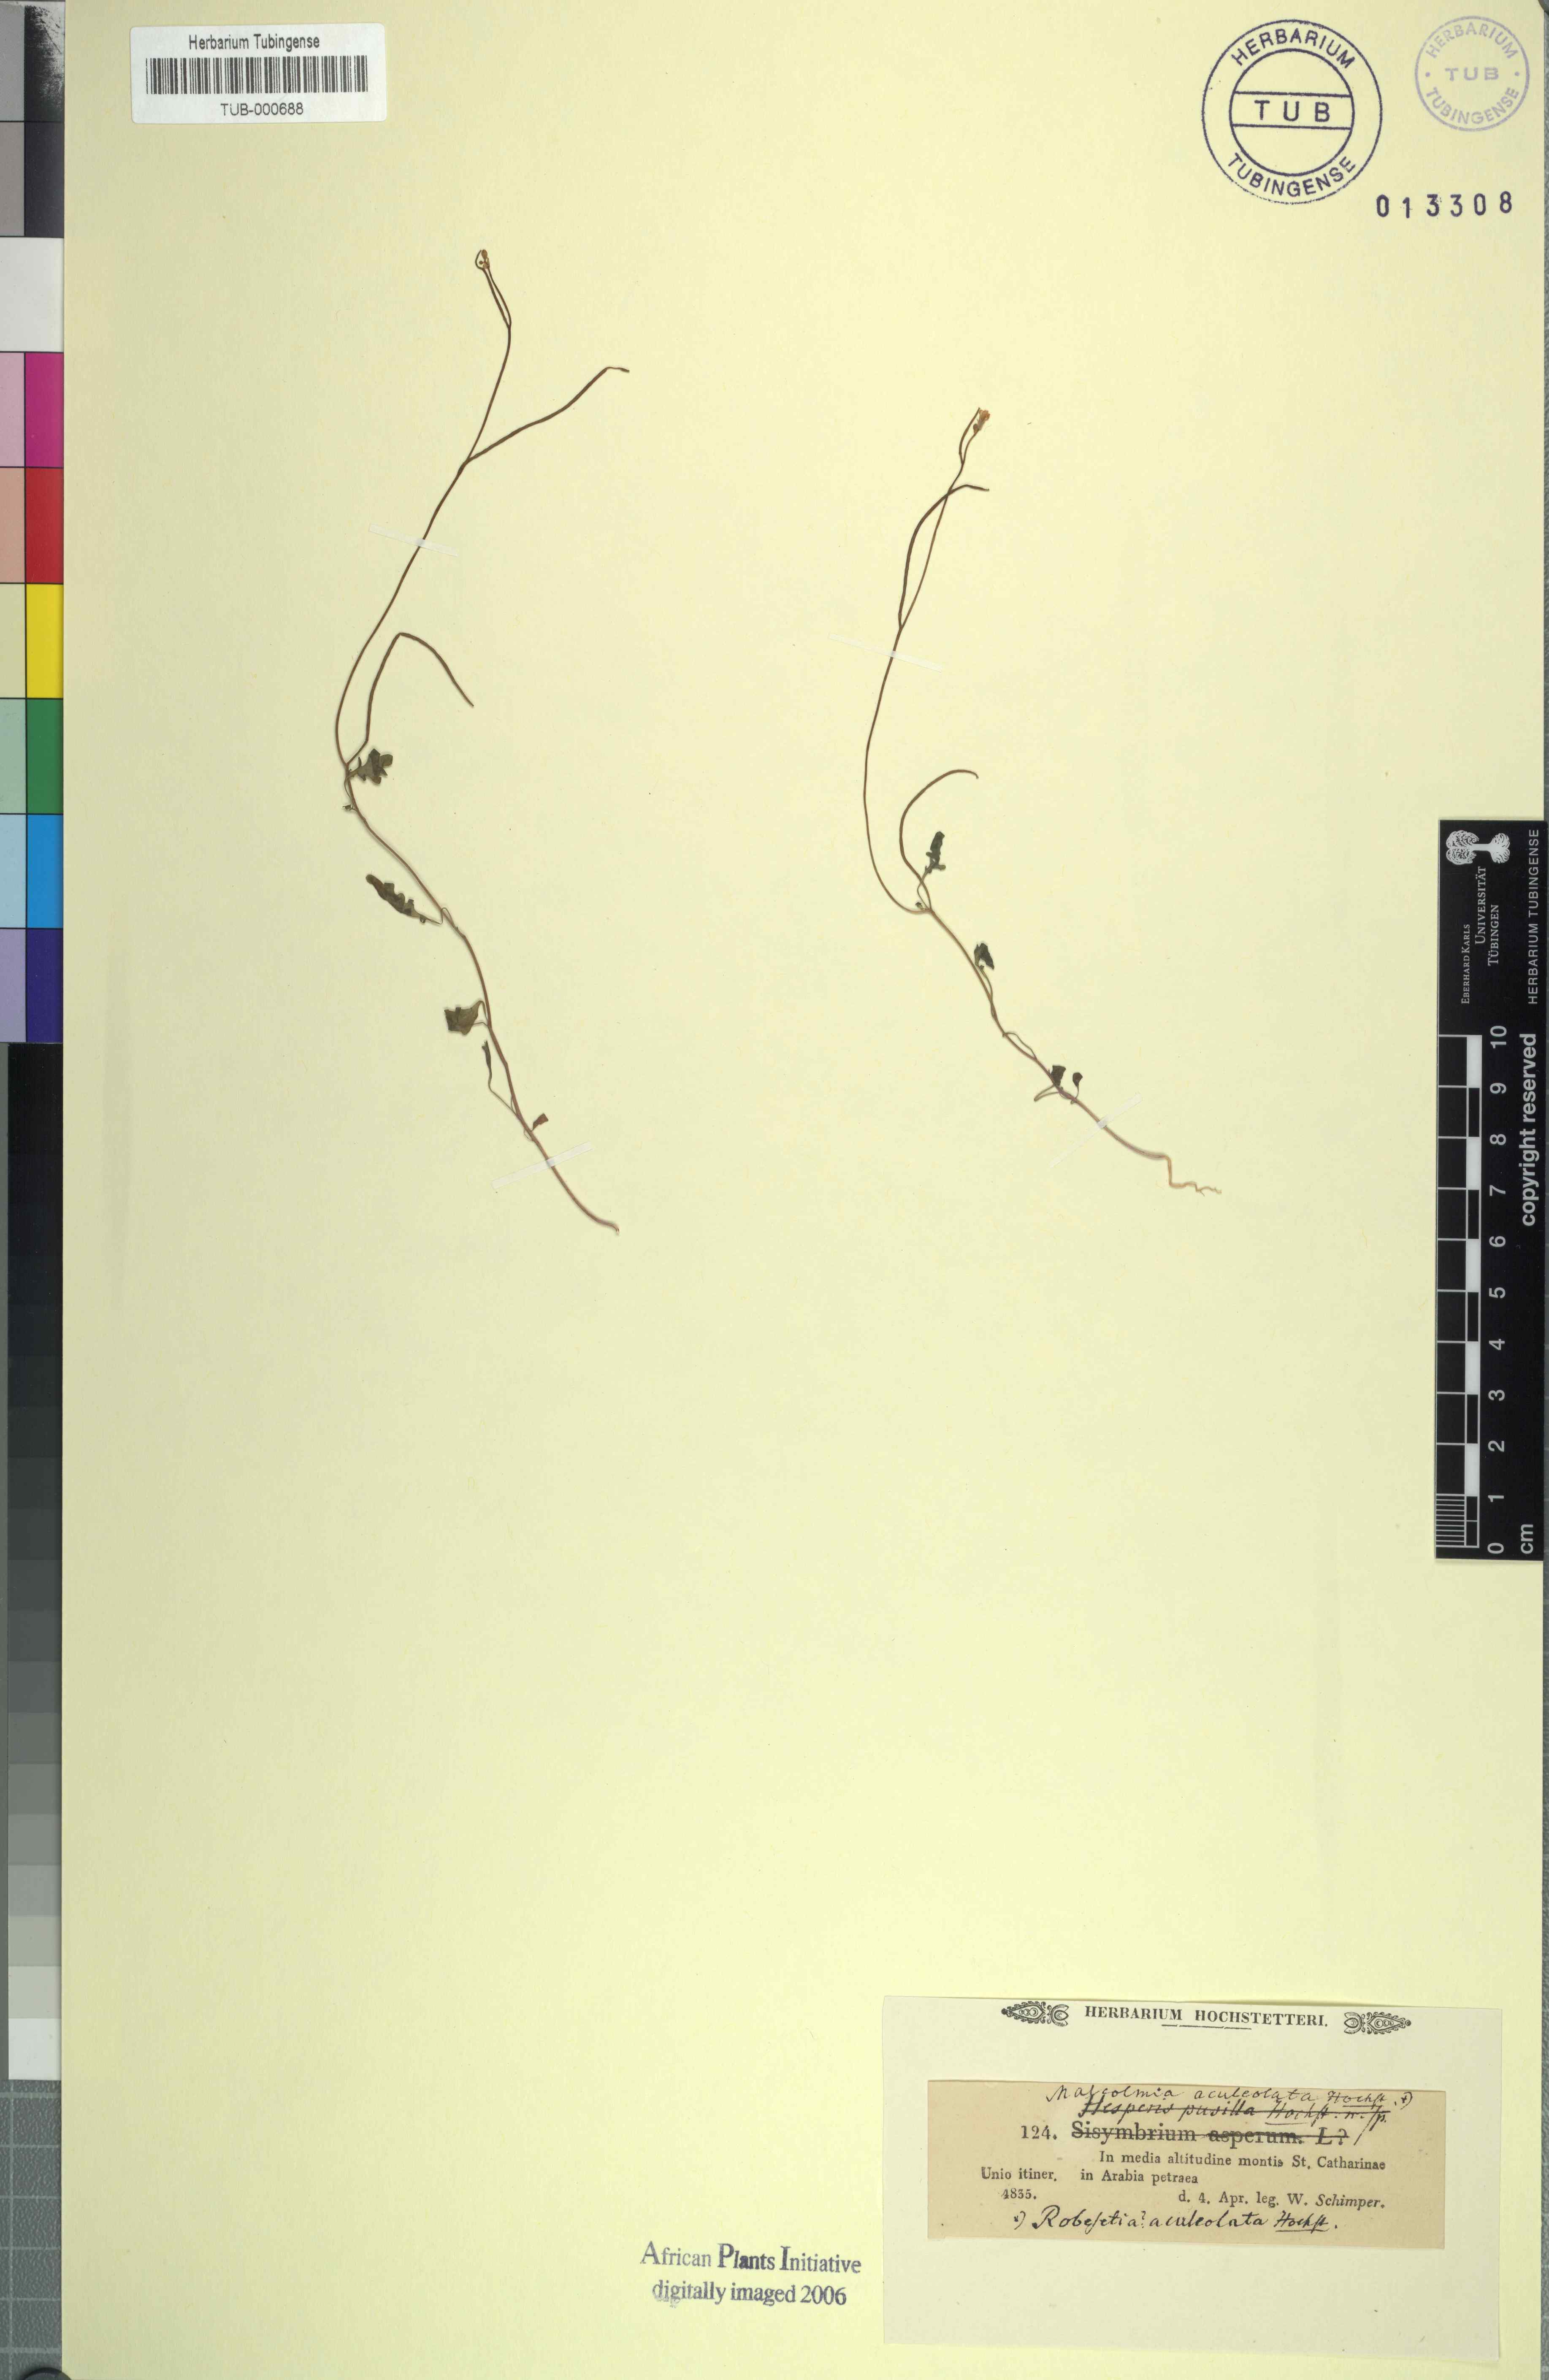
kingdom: Plantae
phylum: Tracheophyta
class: Magnoliopsida
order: Brassicales
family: Brassicaceae
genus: Malcolmia
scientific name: Malcolmia
